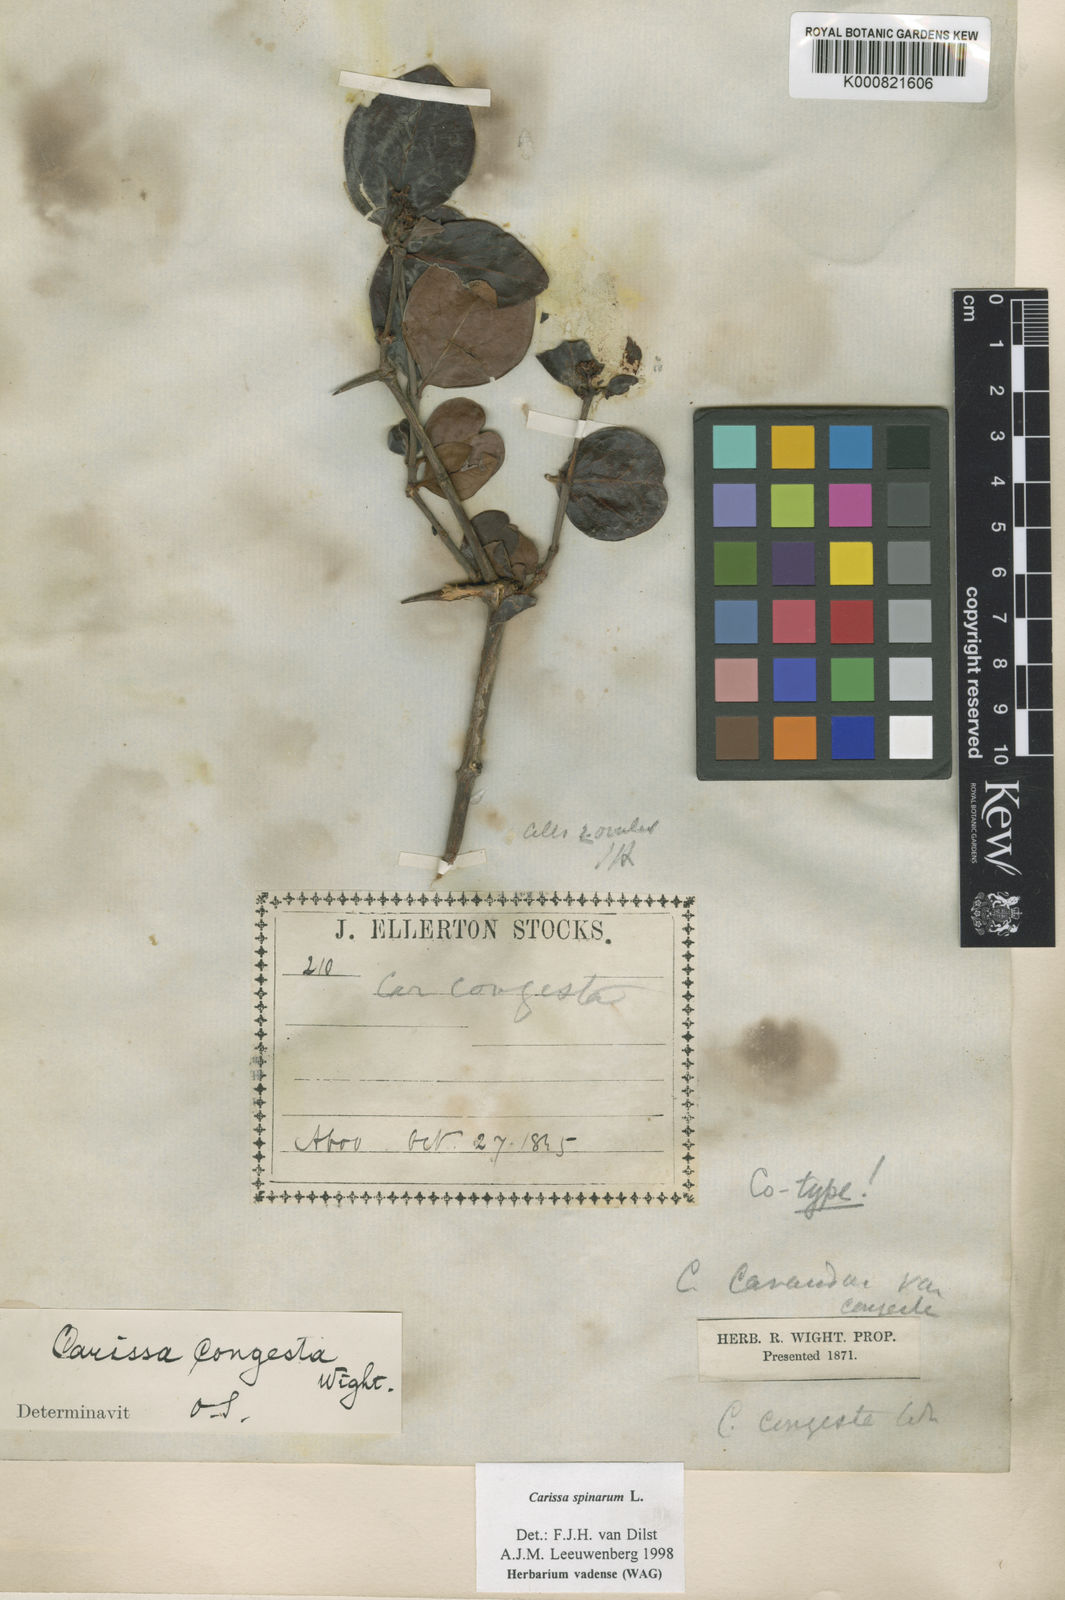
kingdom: Plantae
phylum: Tracheophyta
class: Magnoliopsida
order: Gentianales
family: Apocynaceae
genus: Carissa
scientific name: Carissa spinarum
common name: Egyptian carissa
